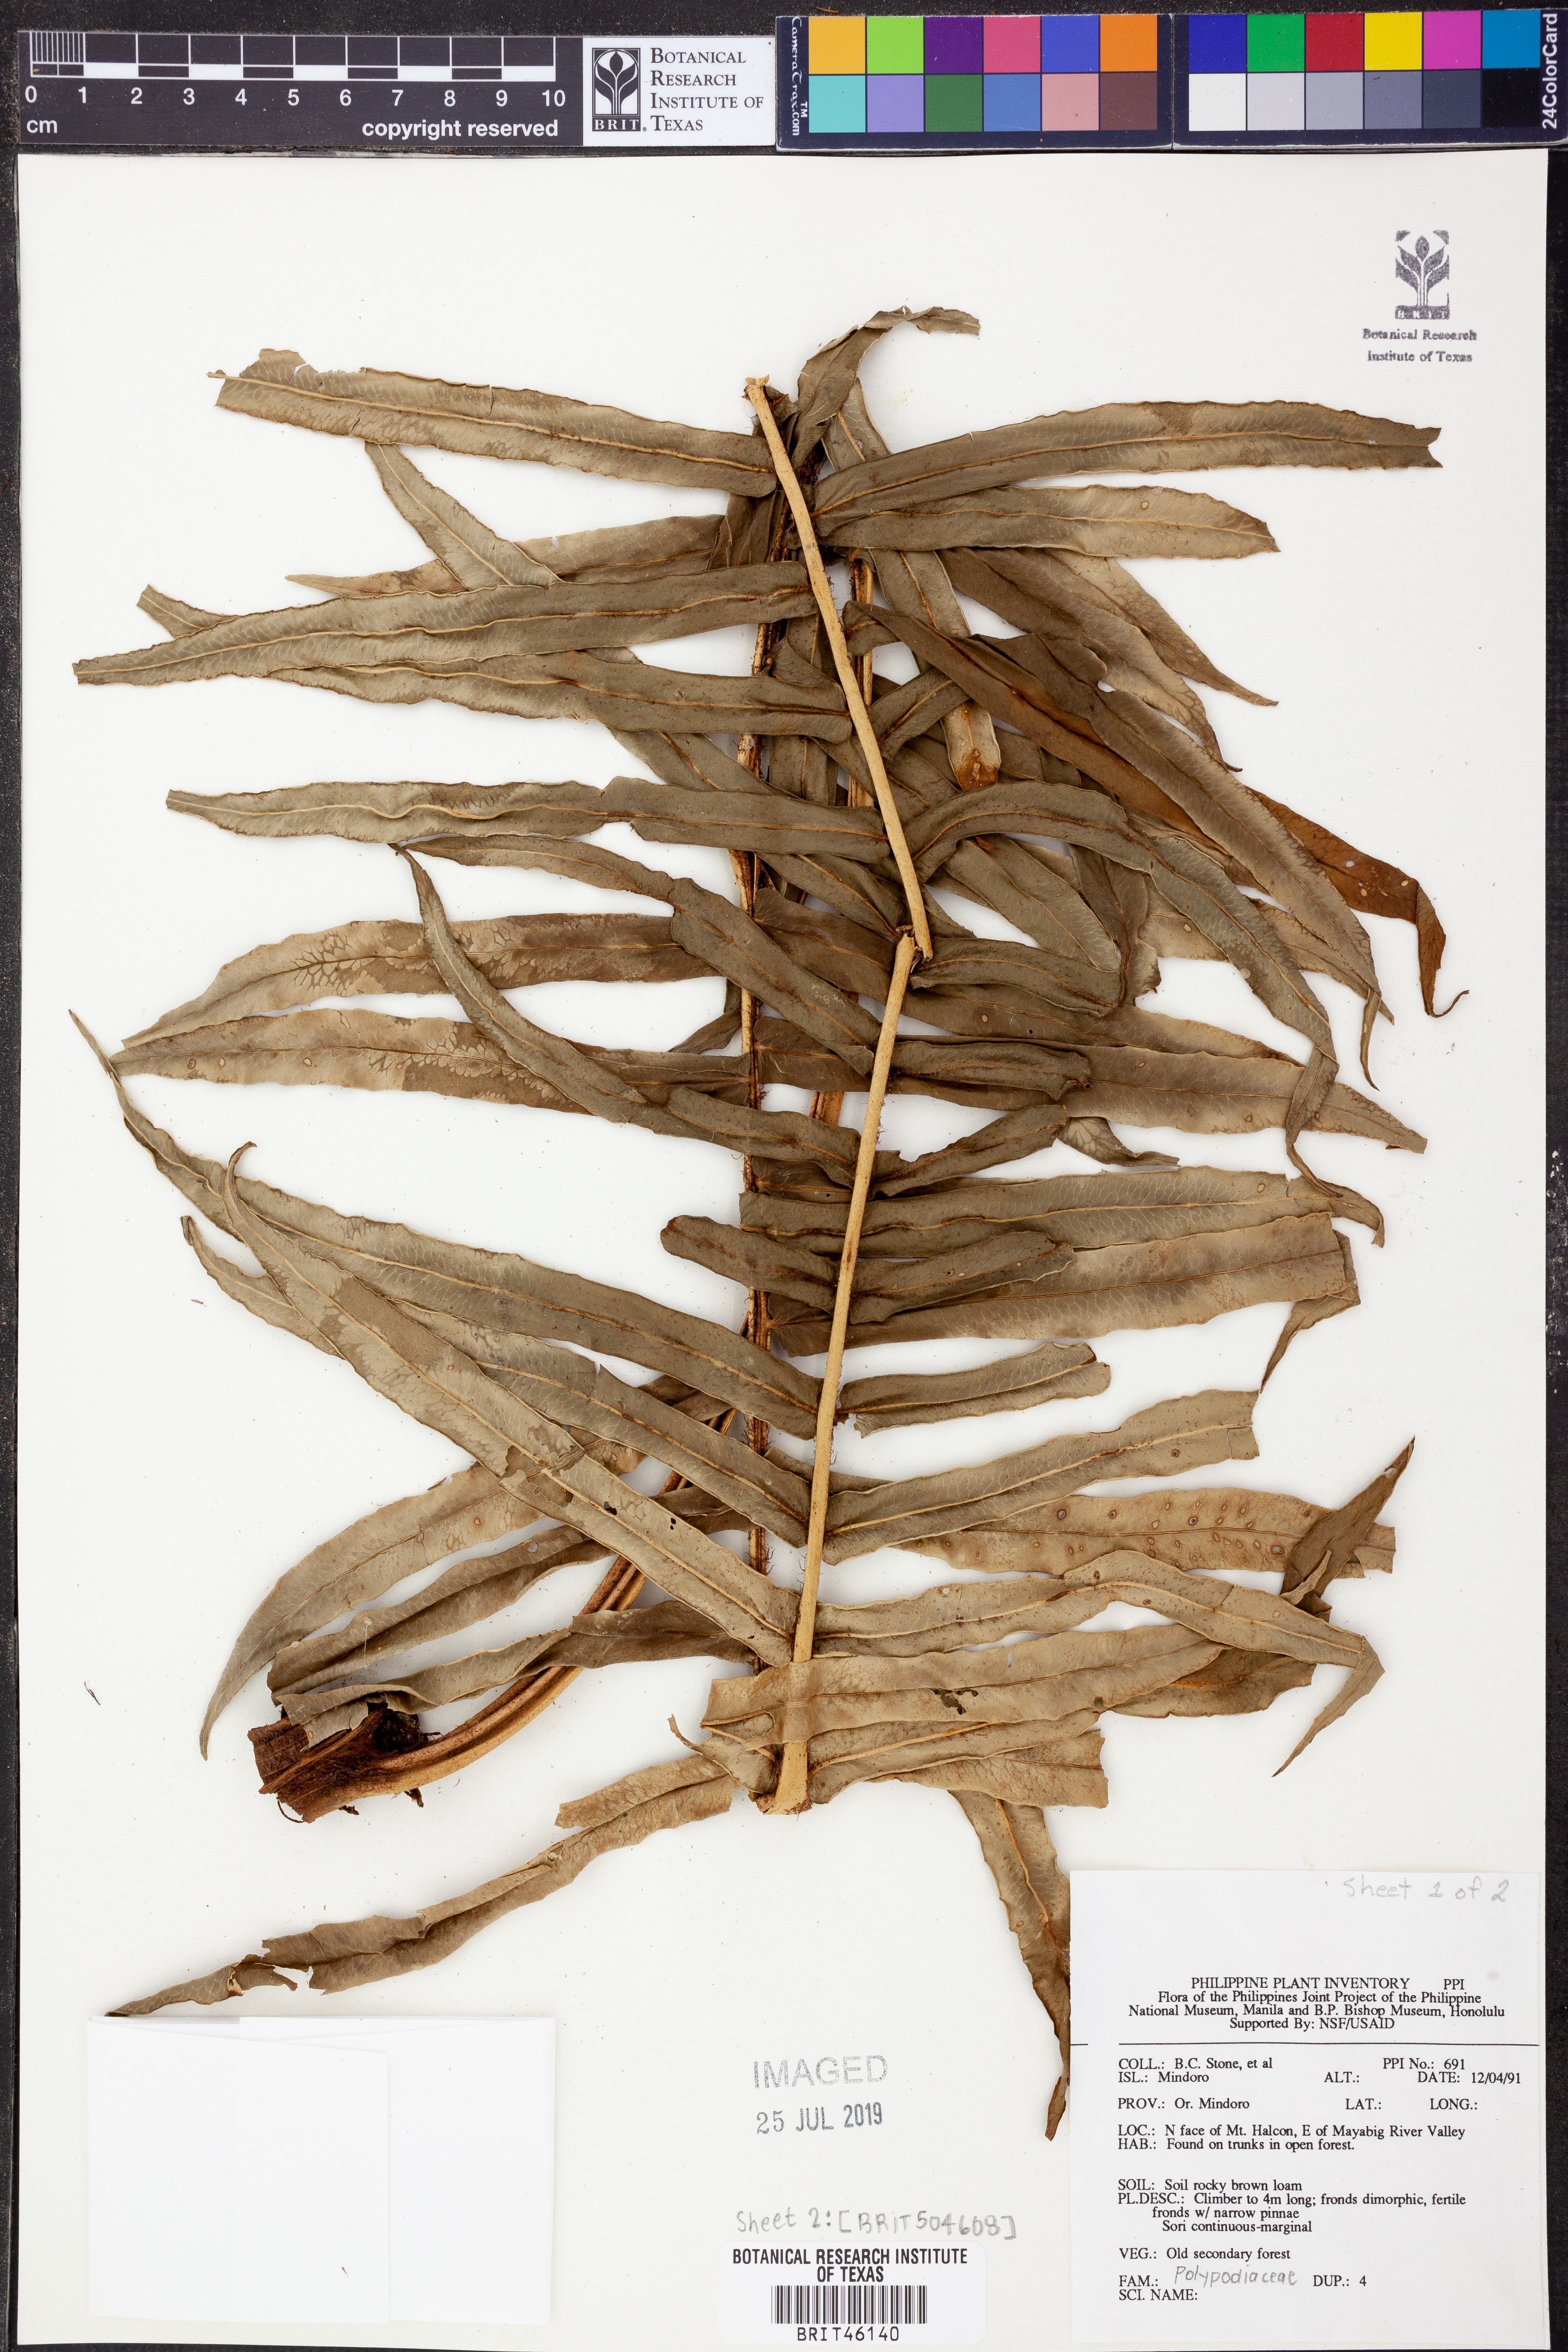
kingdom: Plantae
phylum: Tracheophyta
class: Polypodiopsida
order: Polypodiales
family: Polypodiaceae
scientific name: Polypodiaceae
